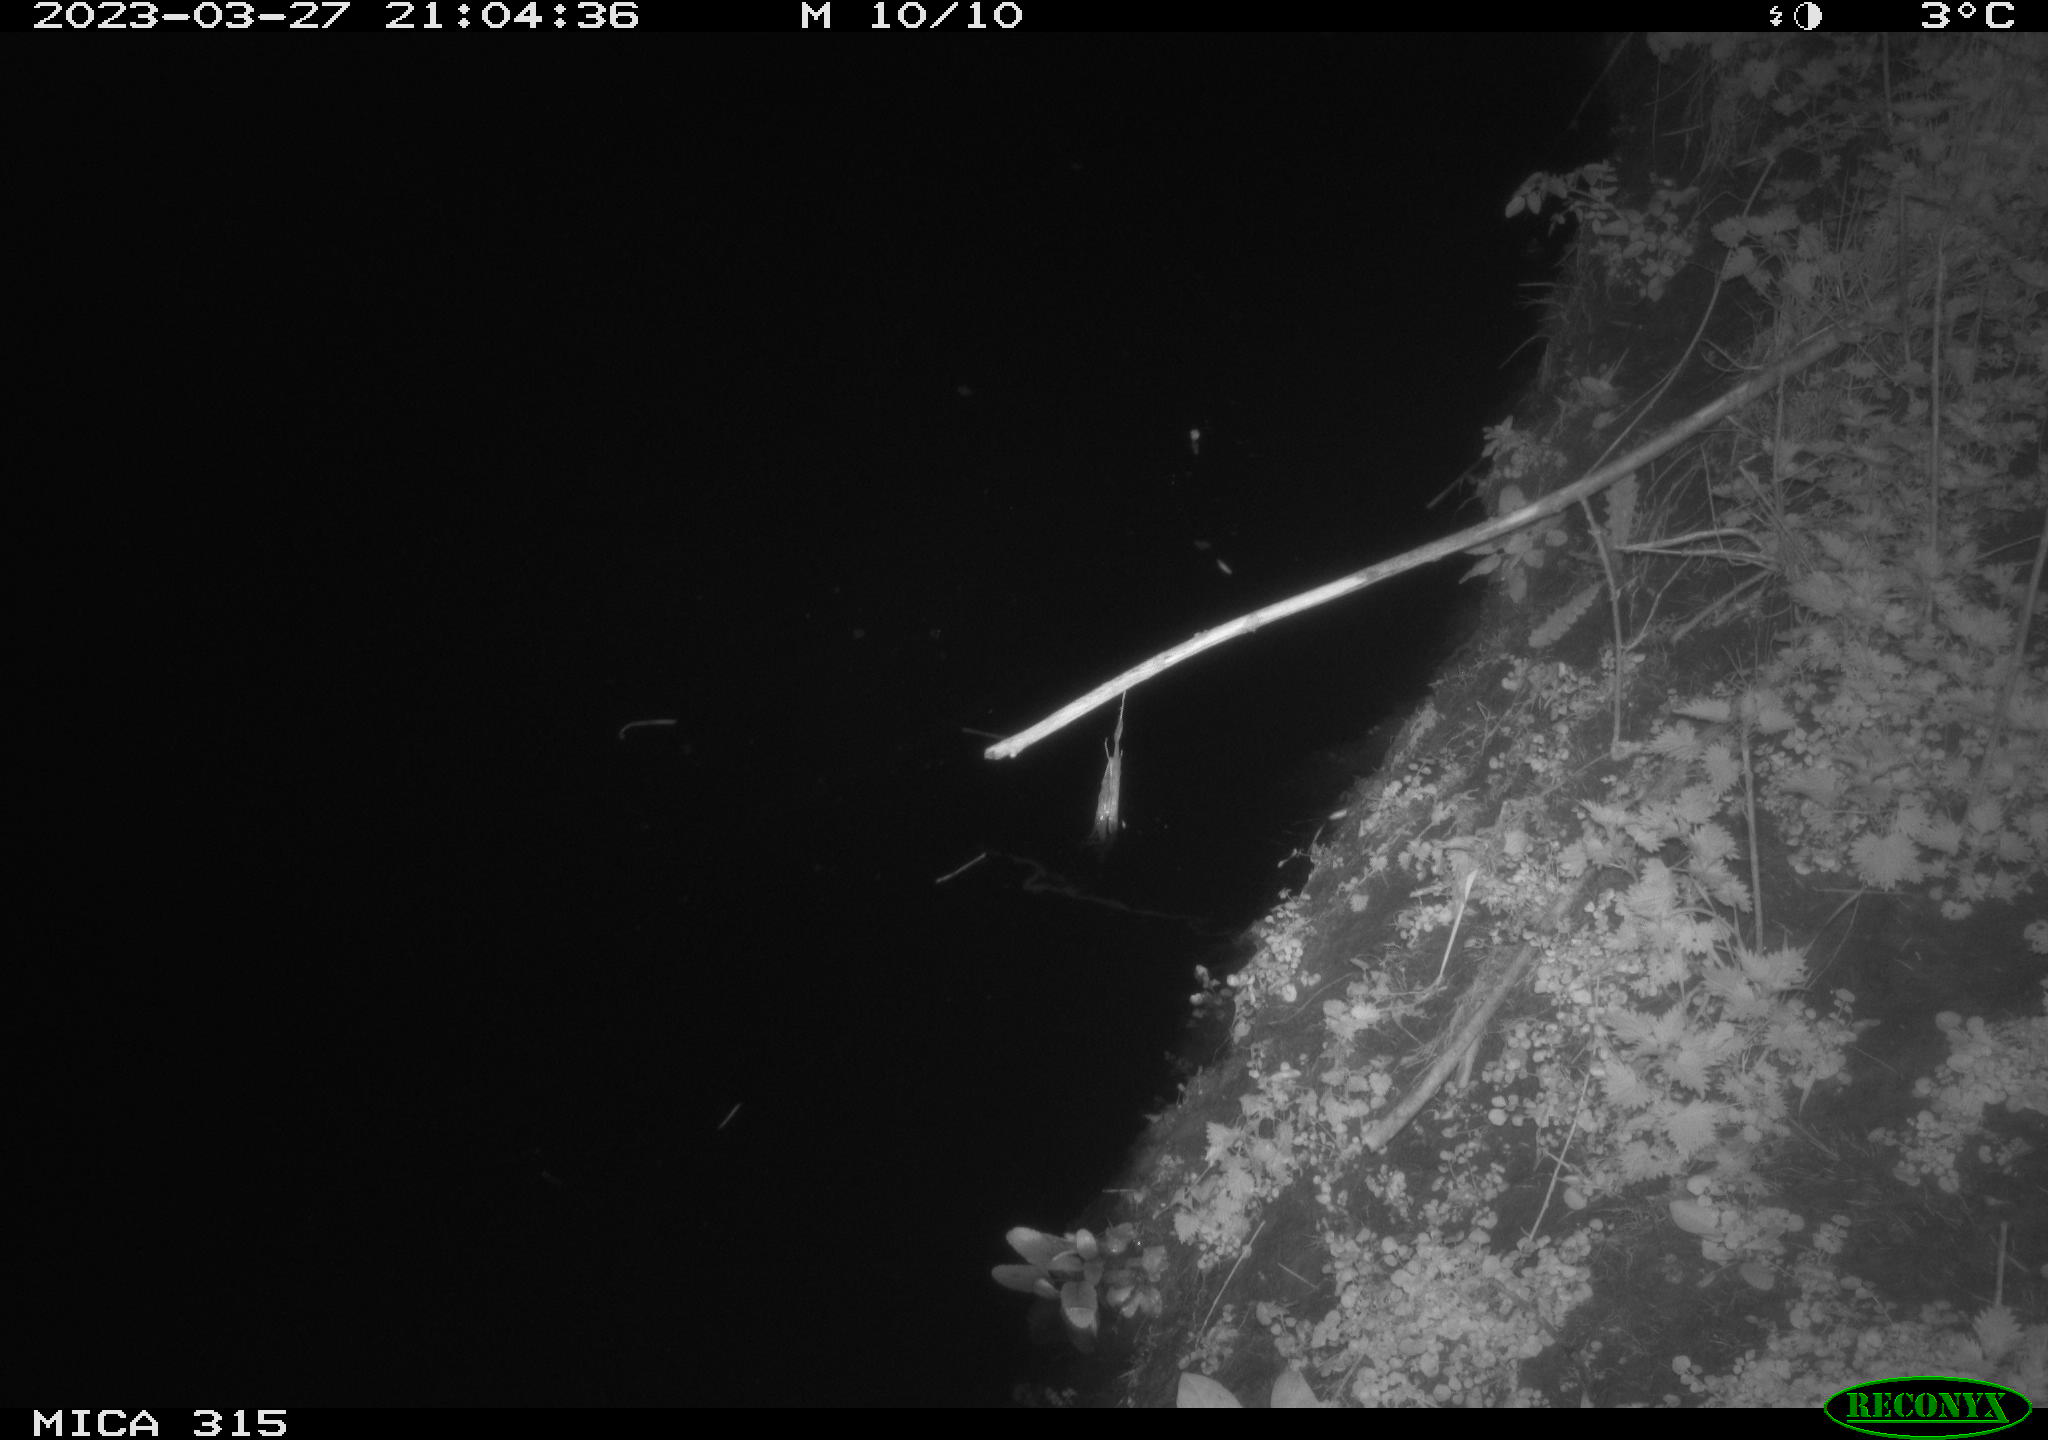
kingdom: Animalia
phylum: Chordata
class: Aves
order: Anseriformes
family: Anatidae
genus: Anas
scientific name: Anas
